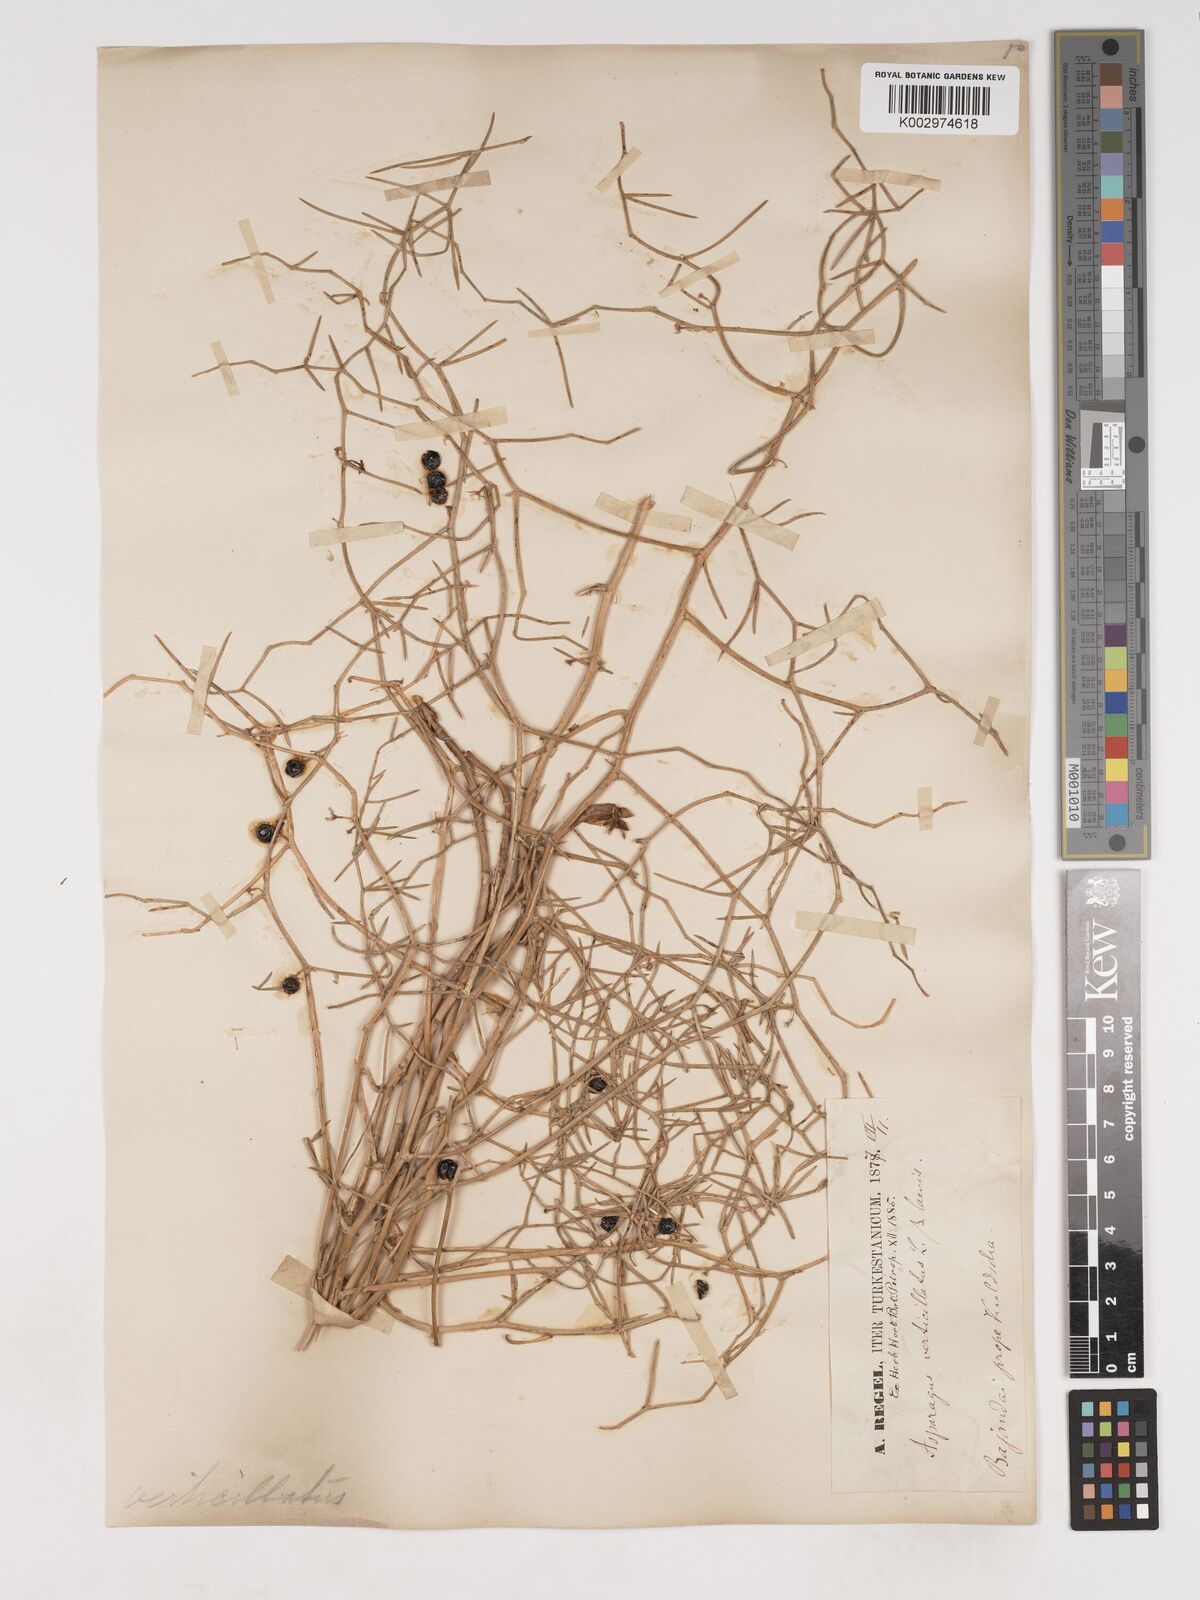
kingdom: Plantae
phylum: Tracheophyta
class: Liliopsida
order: Asparagales
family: Asparagaceae
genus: Asparagus
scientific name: Asparagus verticillatus
